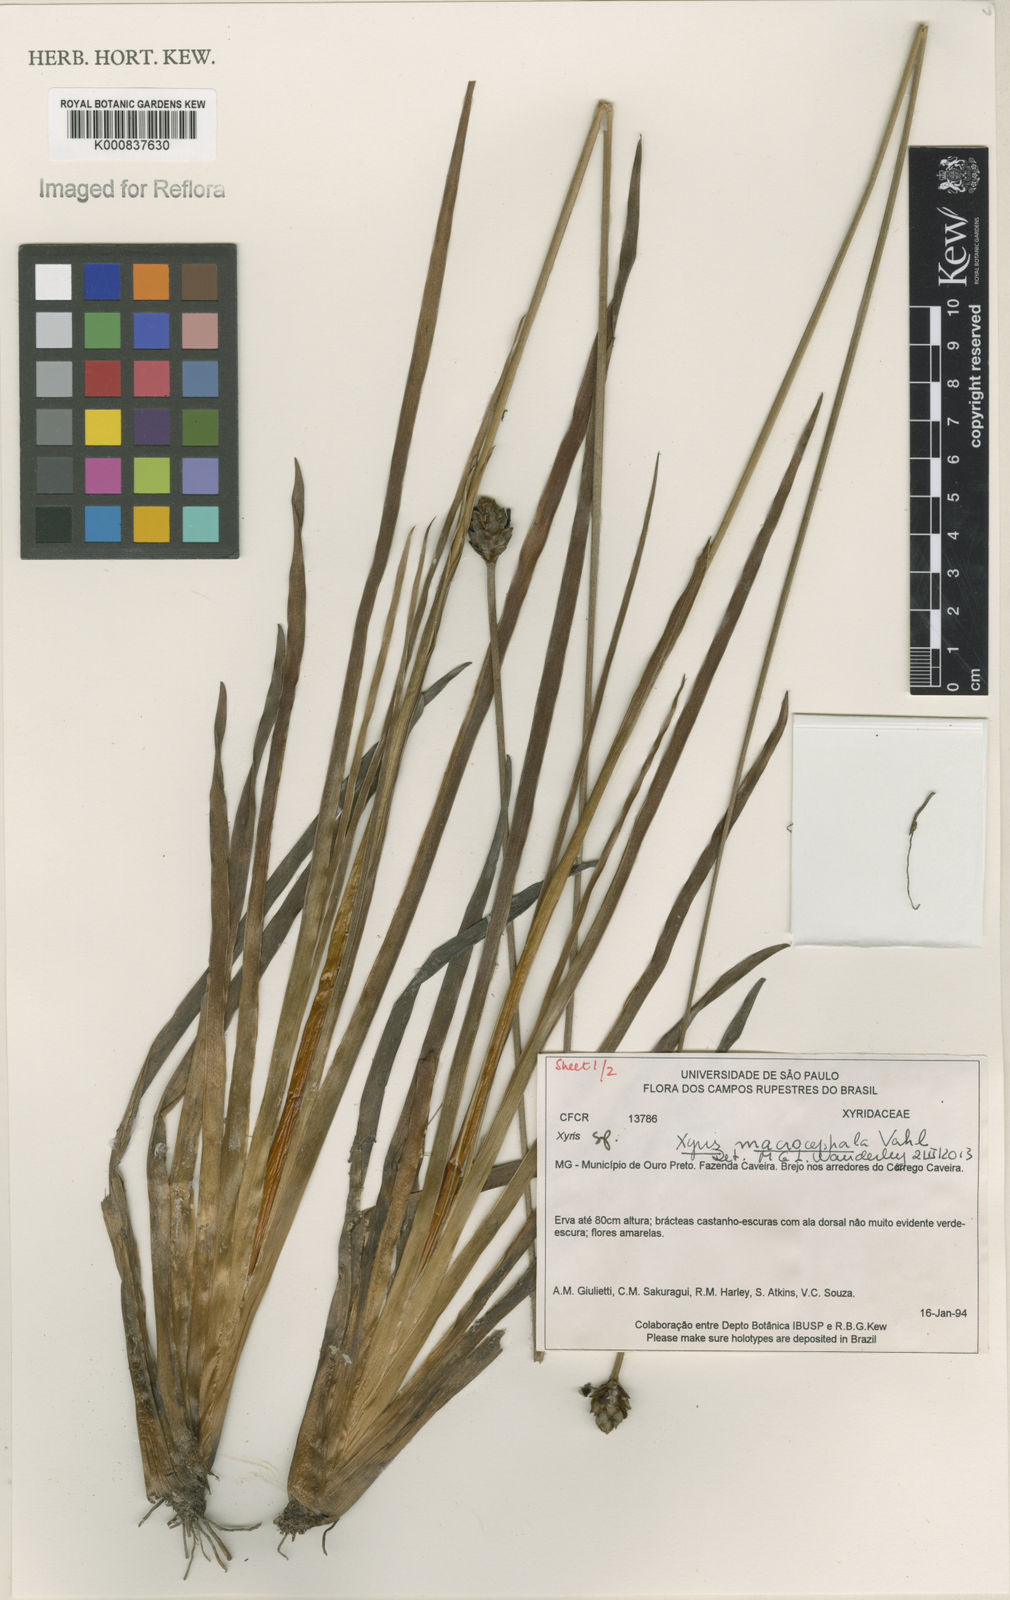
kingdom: Plantae
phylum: Tracheophyta
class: Liliopsida
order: Poales
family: Xyridaceae
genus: Xyris
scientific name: Xyris jupicai
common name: Richard's yelloweyed grass
